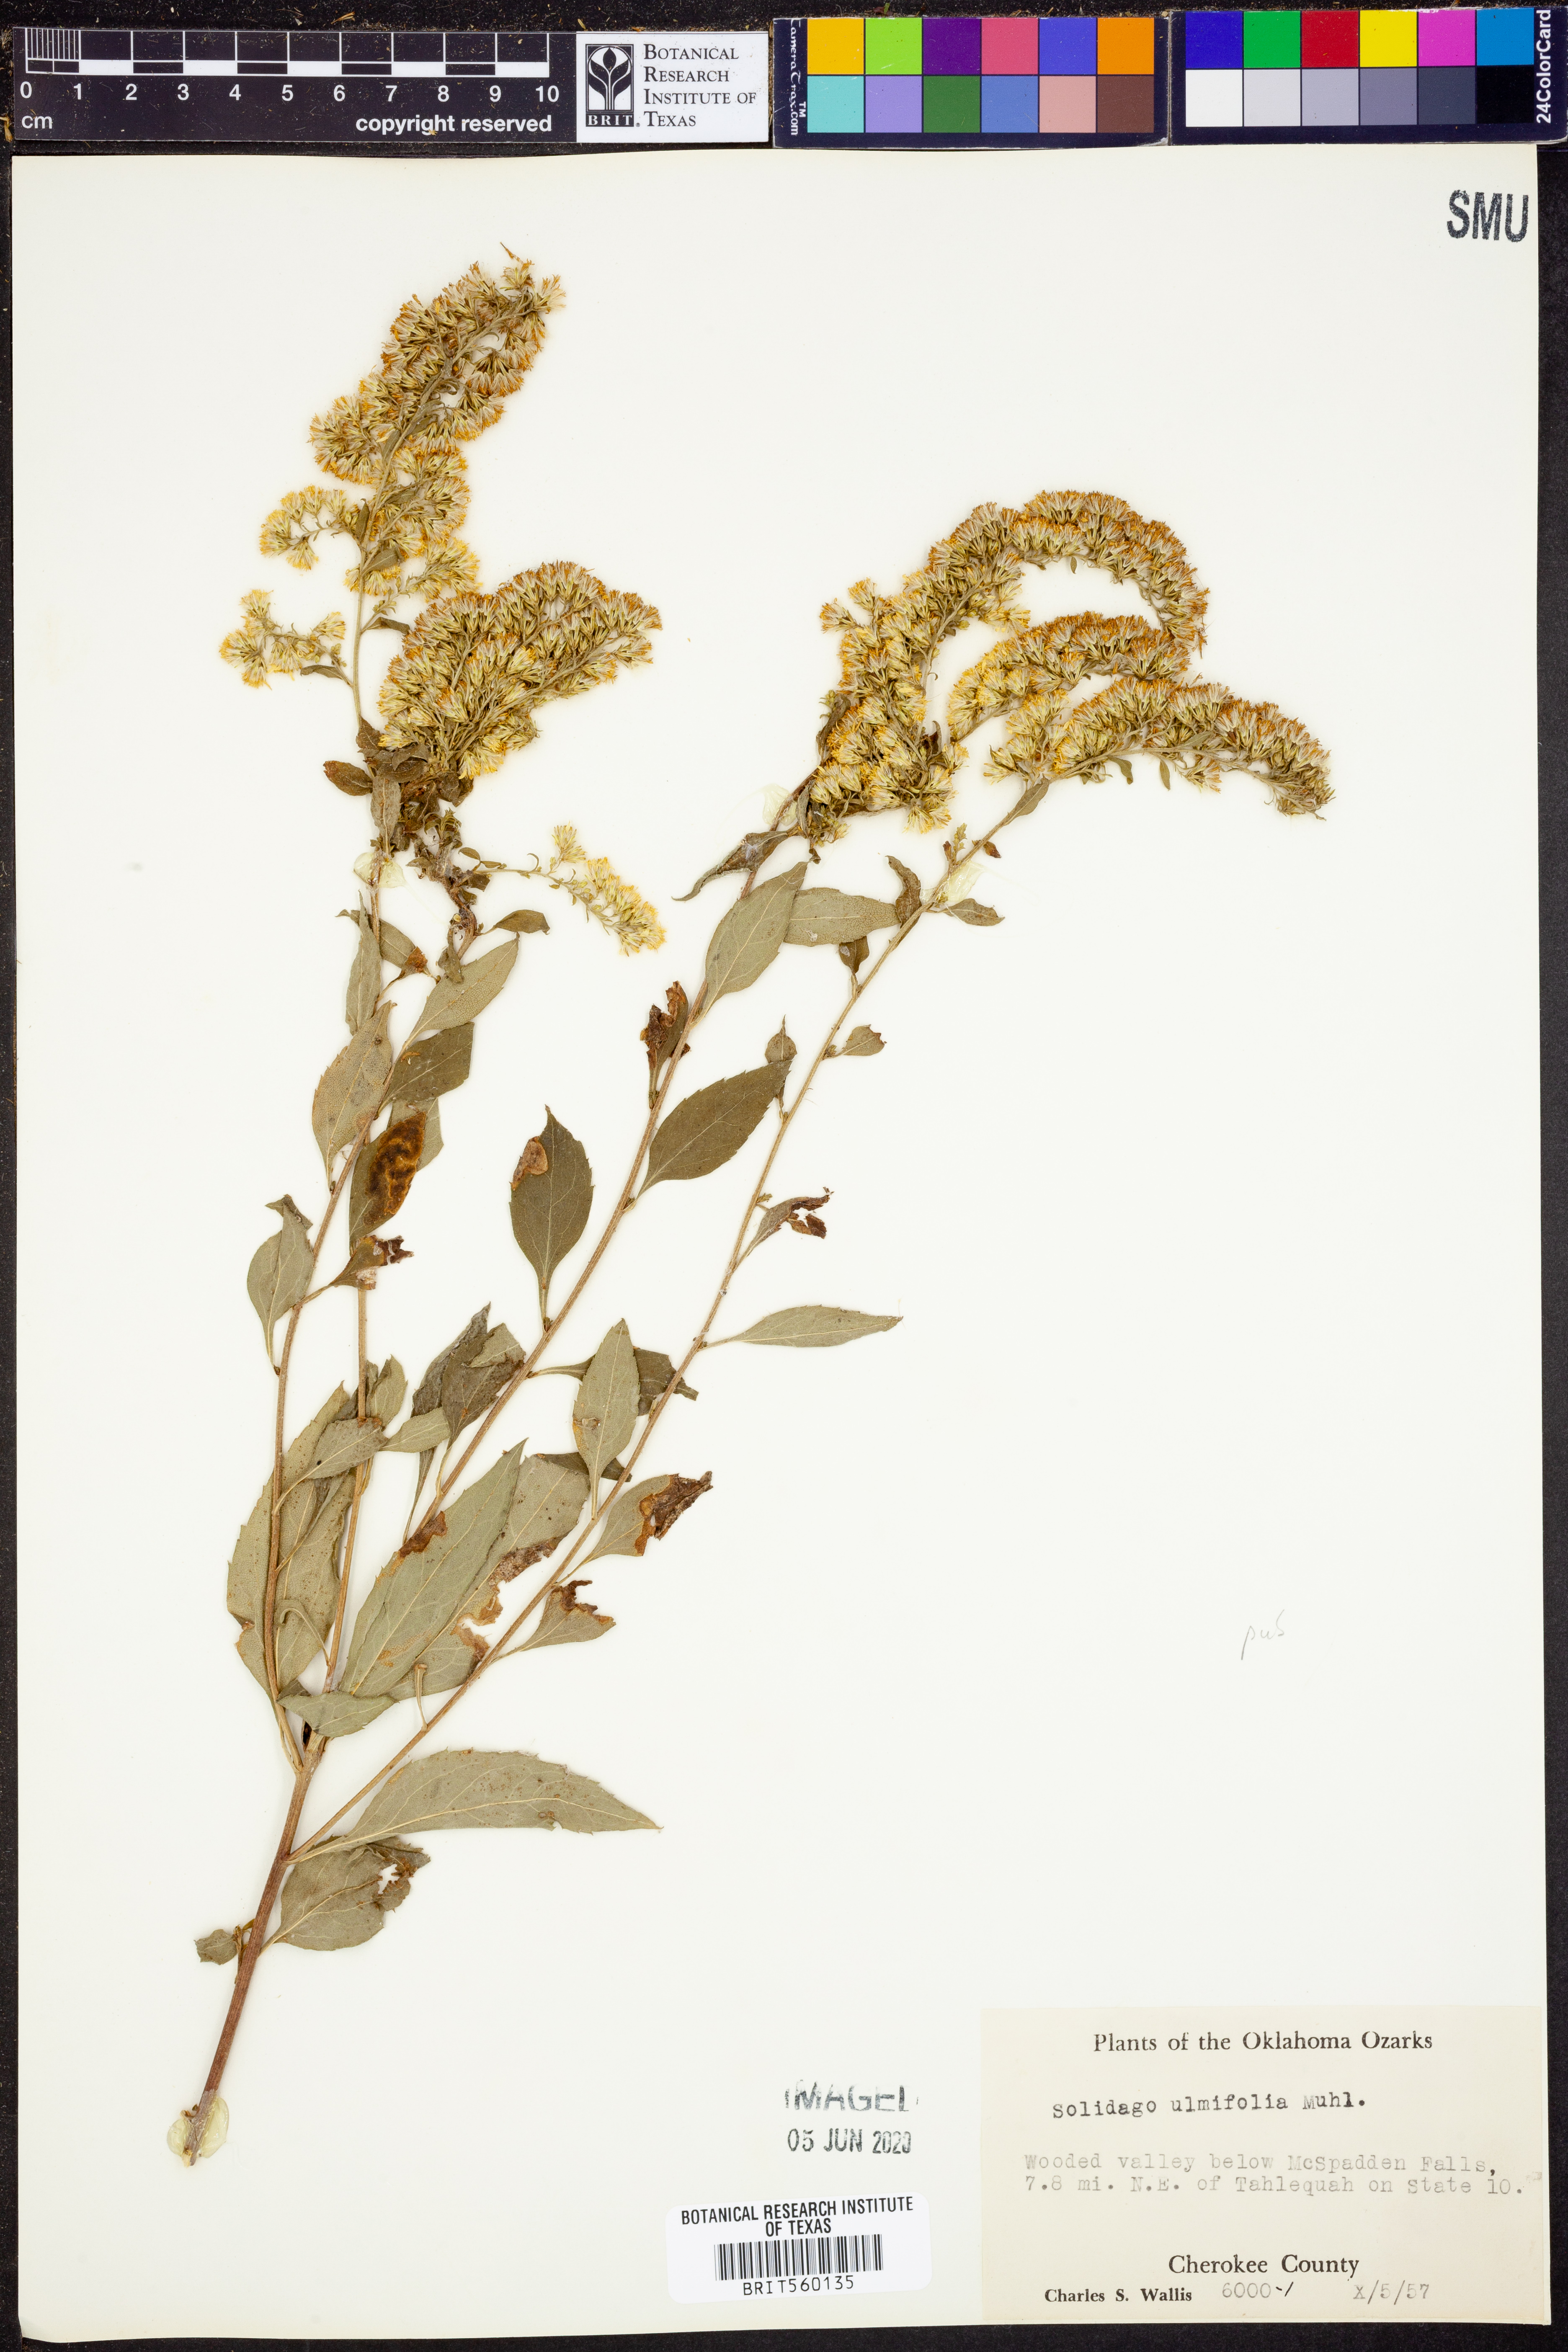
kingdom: Plantae
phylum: Tracheophyta
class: Magnoliopsida
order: Asterales
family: Asteraceae
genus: Solidago
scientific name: Solidago ulmifolia
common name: Elm-leaf goldenrod
